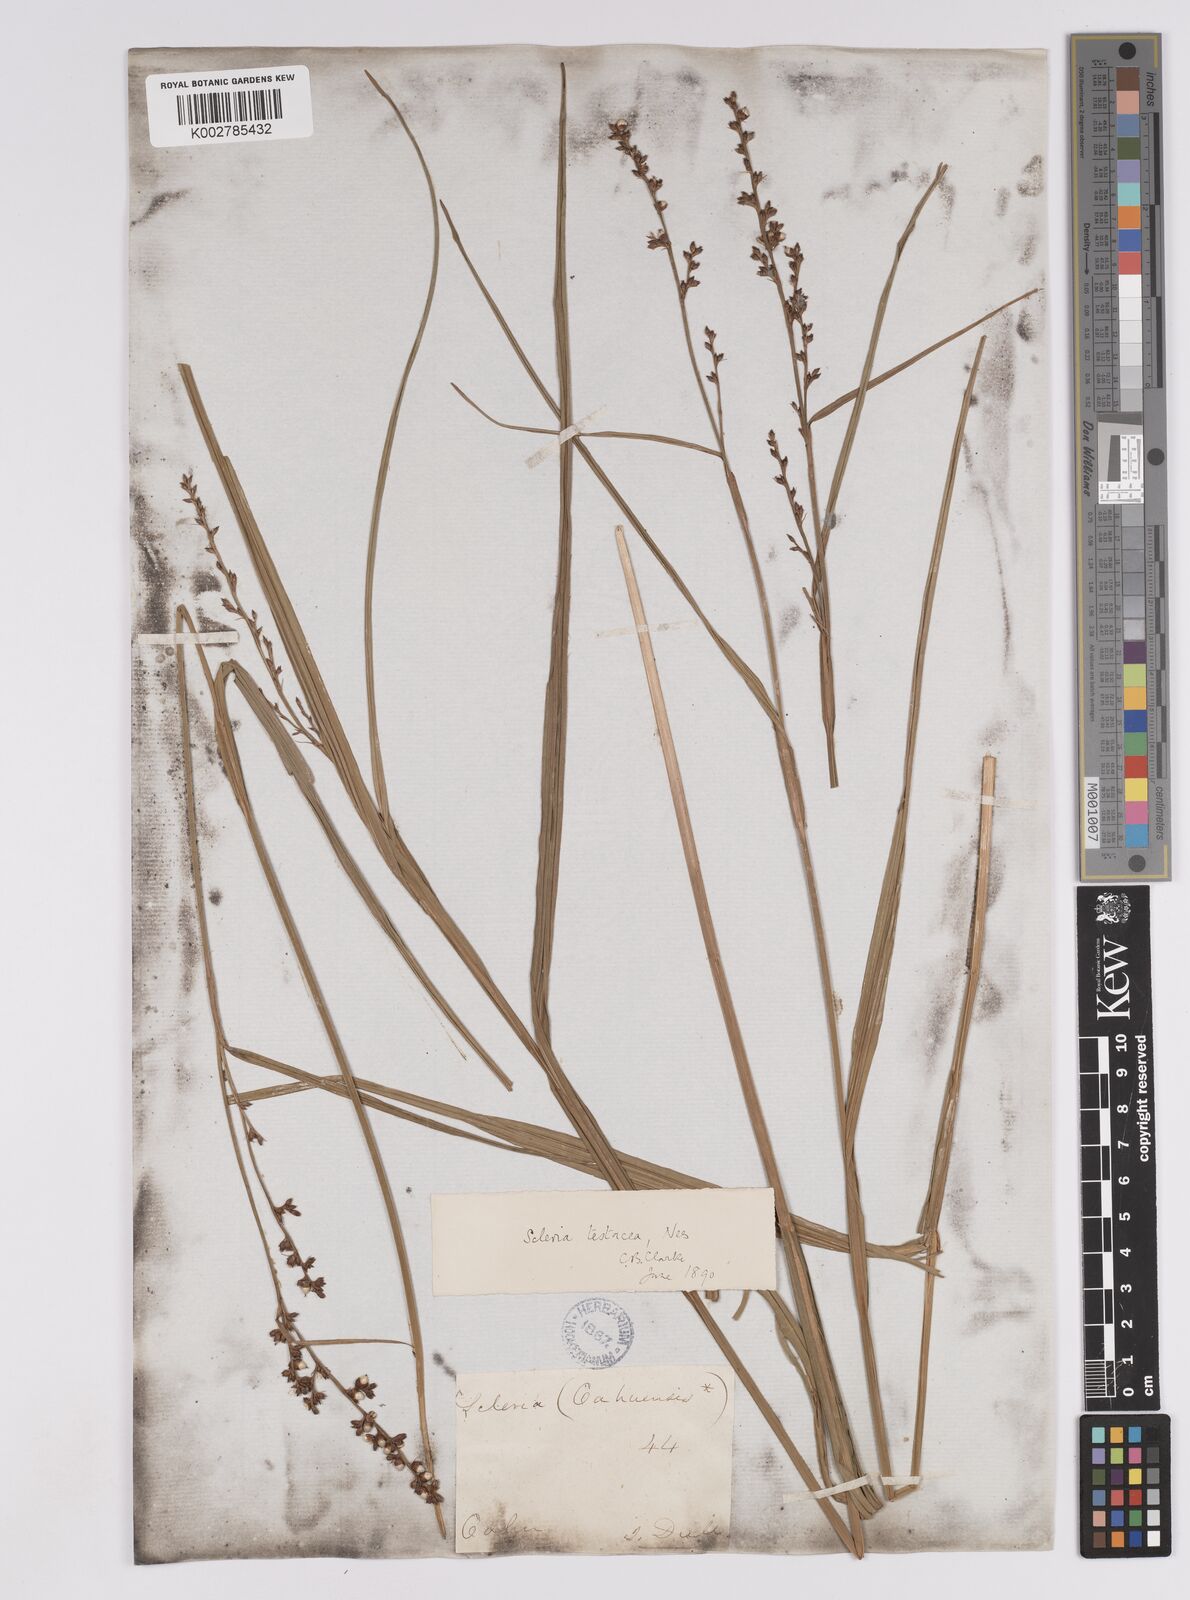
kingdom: Plantae
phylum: Tracheophyta
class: Liliopsida
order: Poales
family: Cyperaceae
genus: Scleria
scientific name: Scleria testacea
